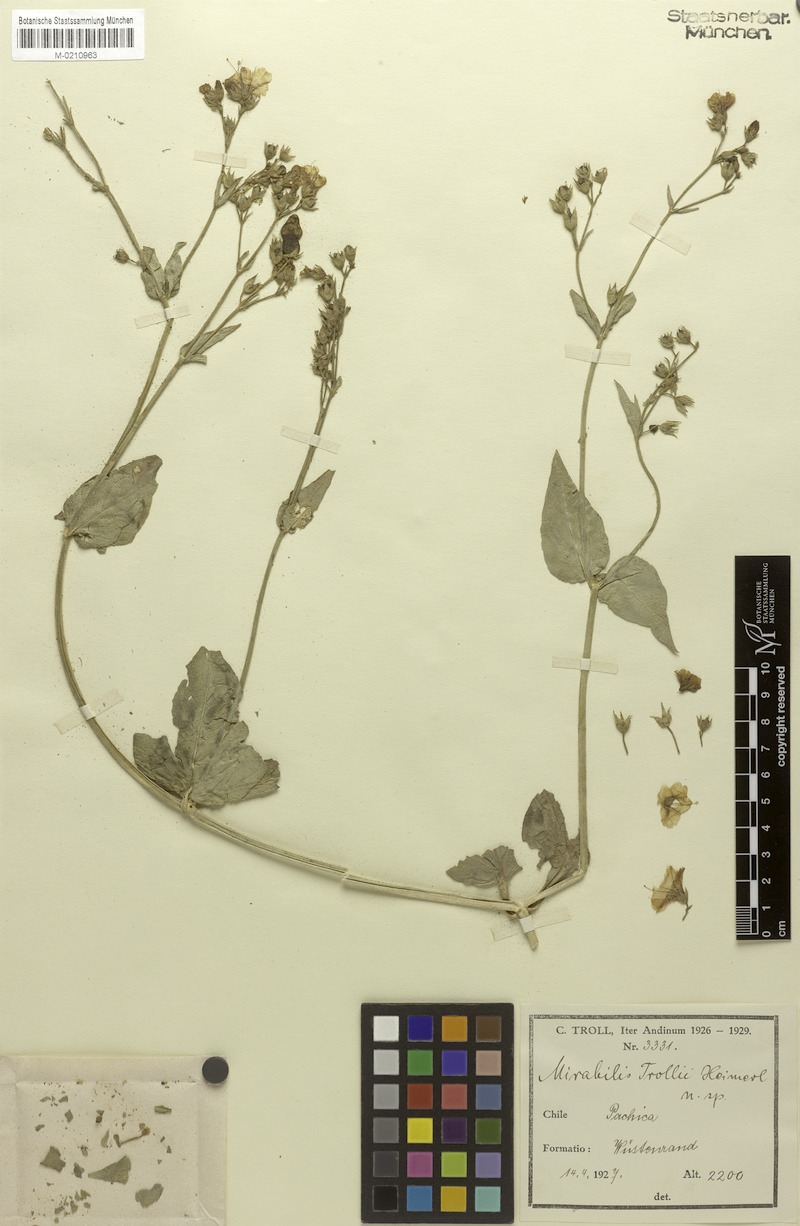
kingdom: Plantae
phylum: Tracheophyta
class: Magnoliopsida
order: Caryophyllales
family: Nyctaginaceae
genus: Mirabilis
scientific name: Mirabilis trollii
